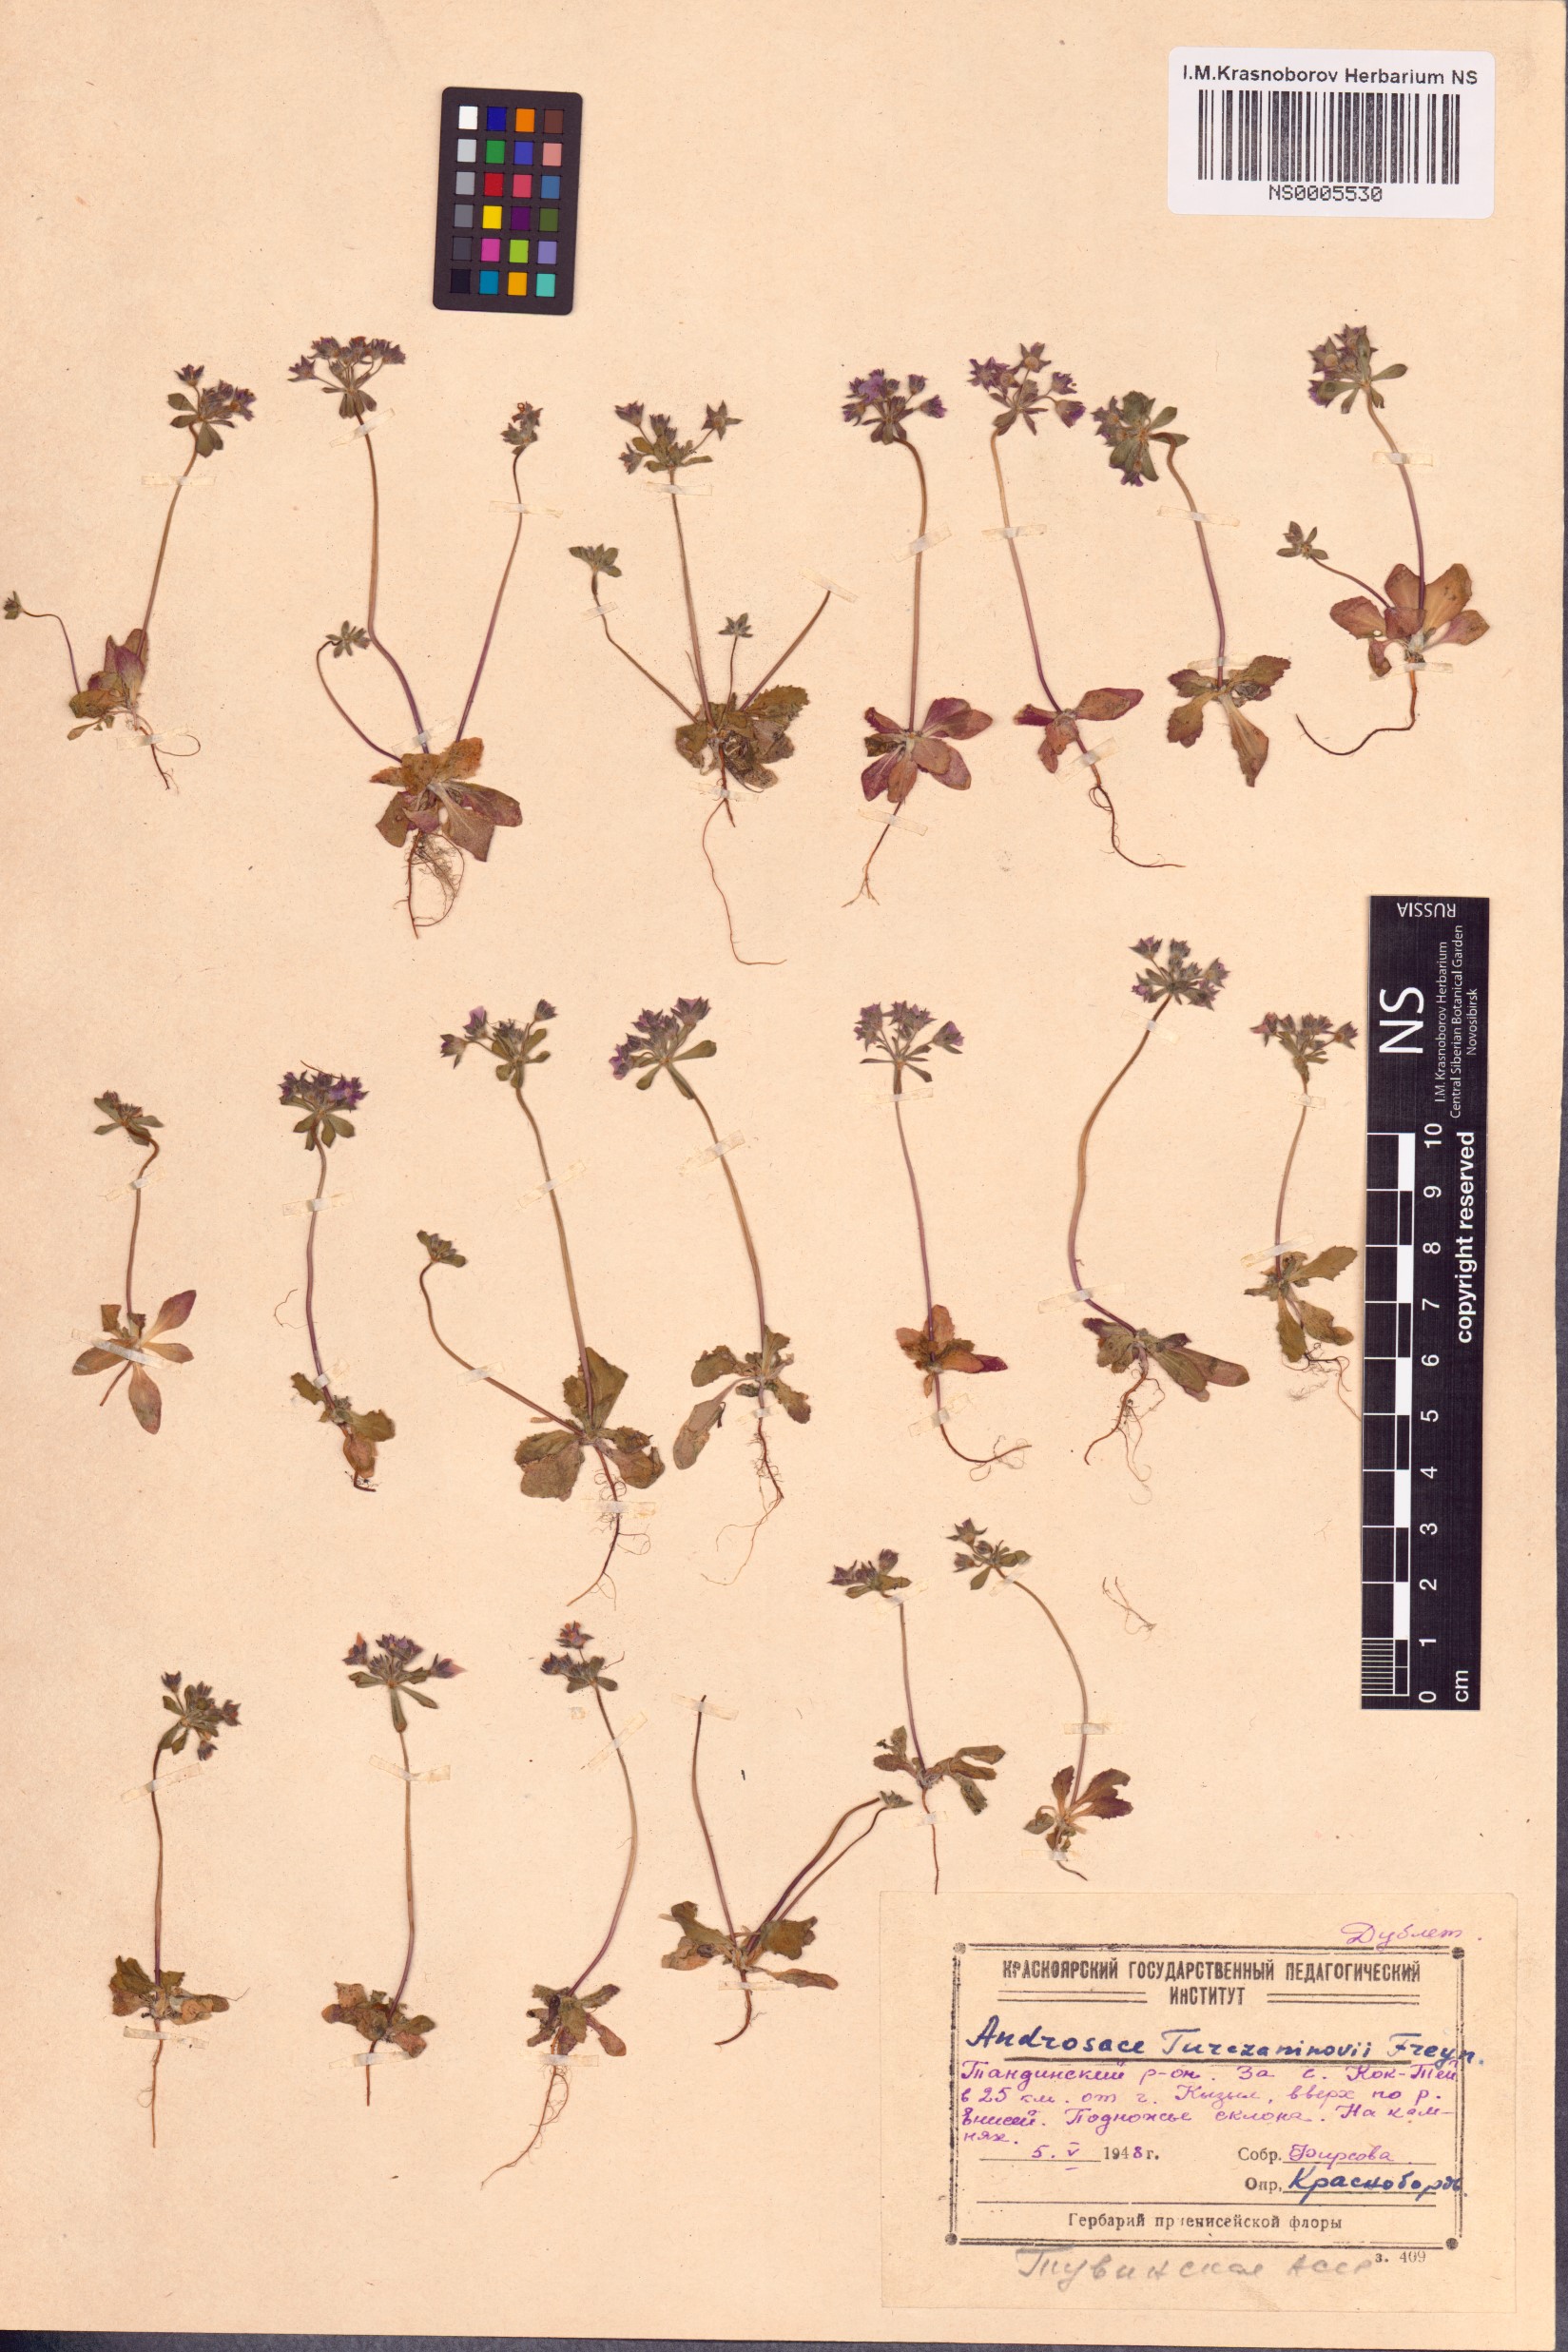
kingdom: Plantae
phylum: Tracheophyta
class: Magnoliopsida
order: Ericales
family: Primulaceae
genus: Androsace
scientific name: Androsace maxima
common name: Annual androsace
